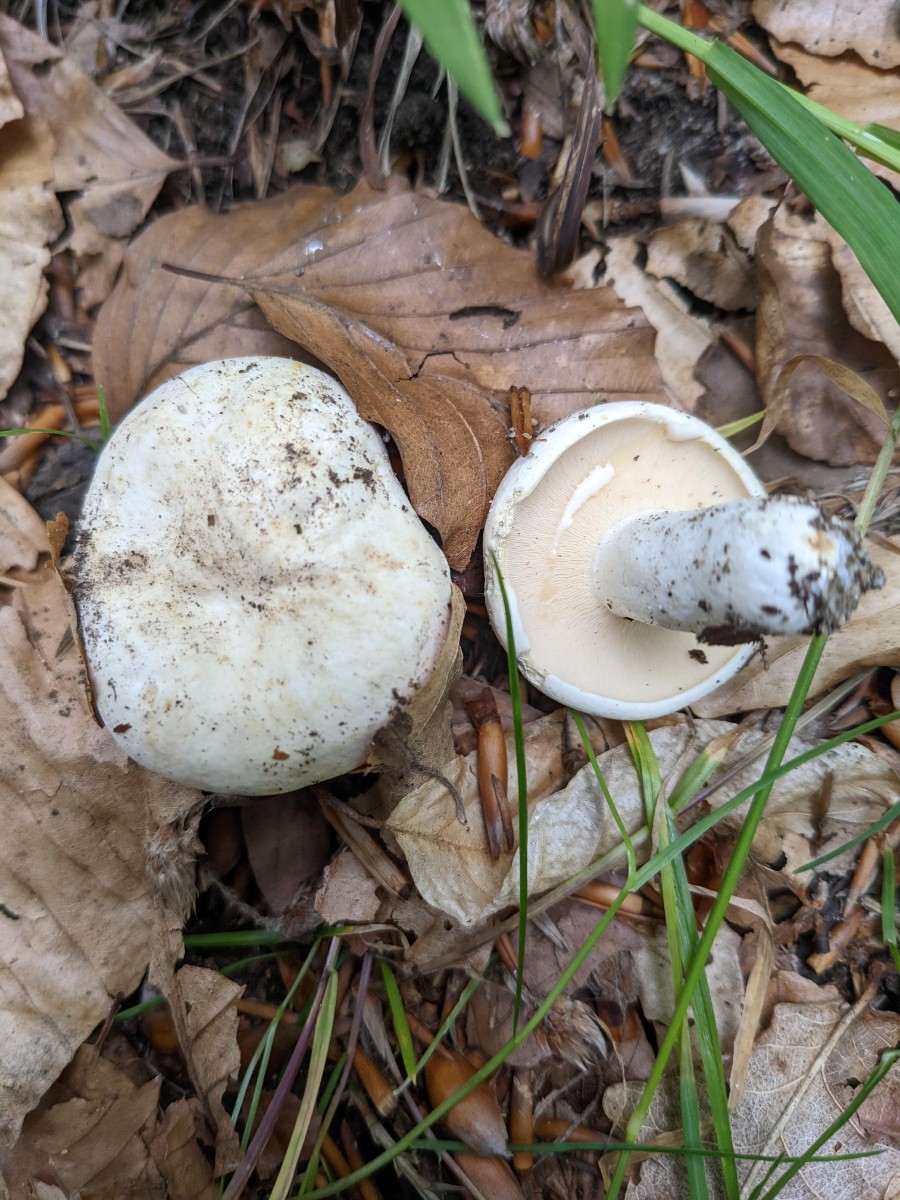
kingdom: Fungi
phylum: Basidiomycota
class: Agaricomycetes
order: Russulales
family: Russulaceae
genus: Lactifluus
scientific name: Lactifluus piperatus
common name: peber-mælkehat
